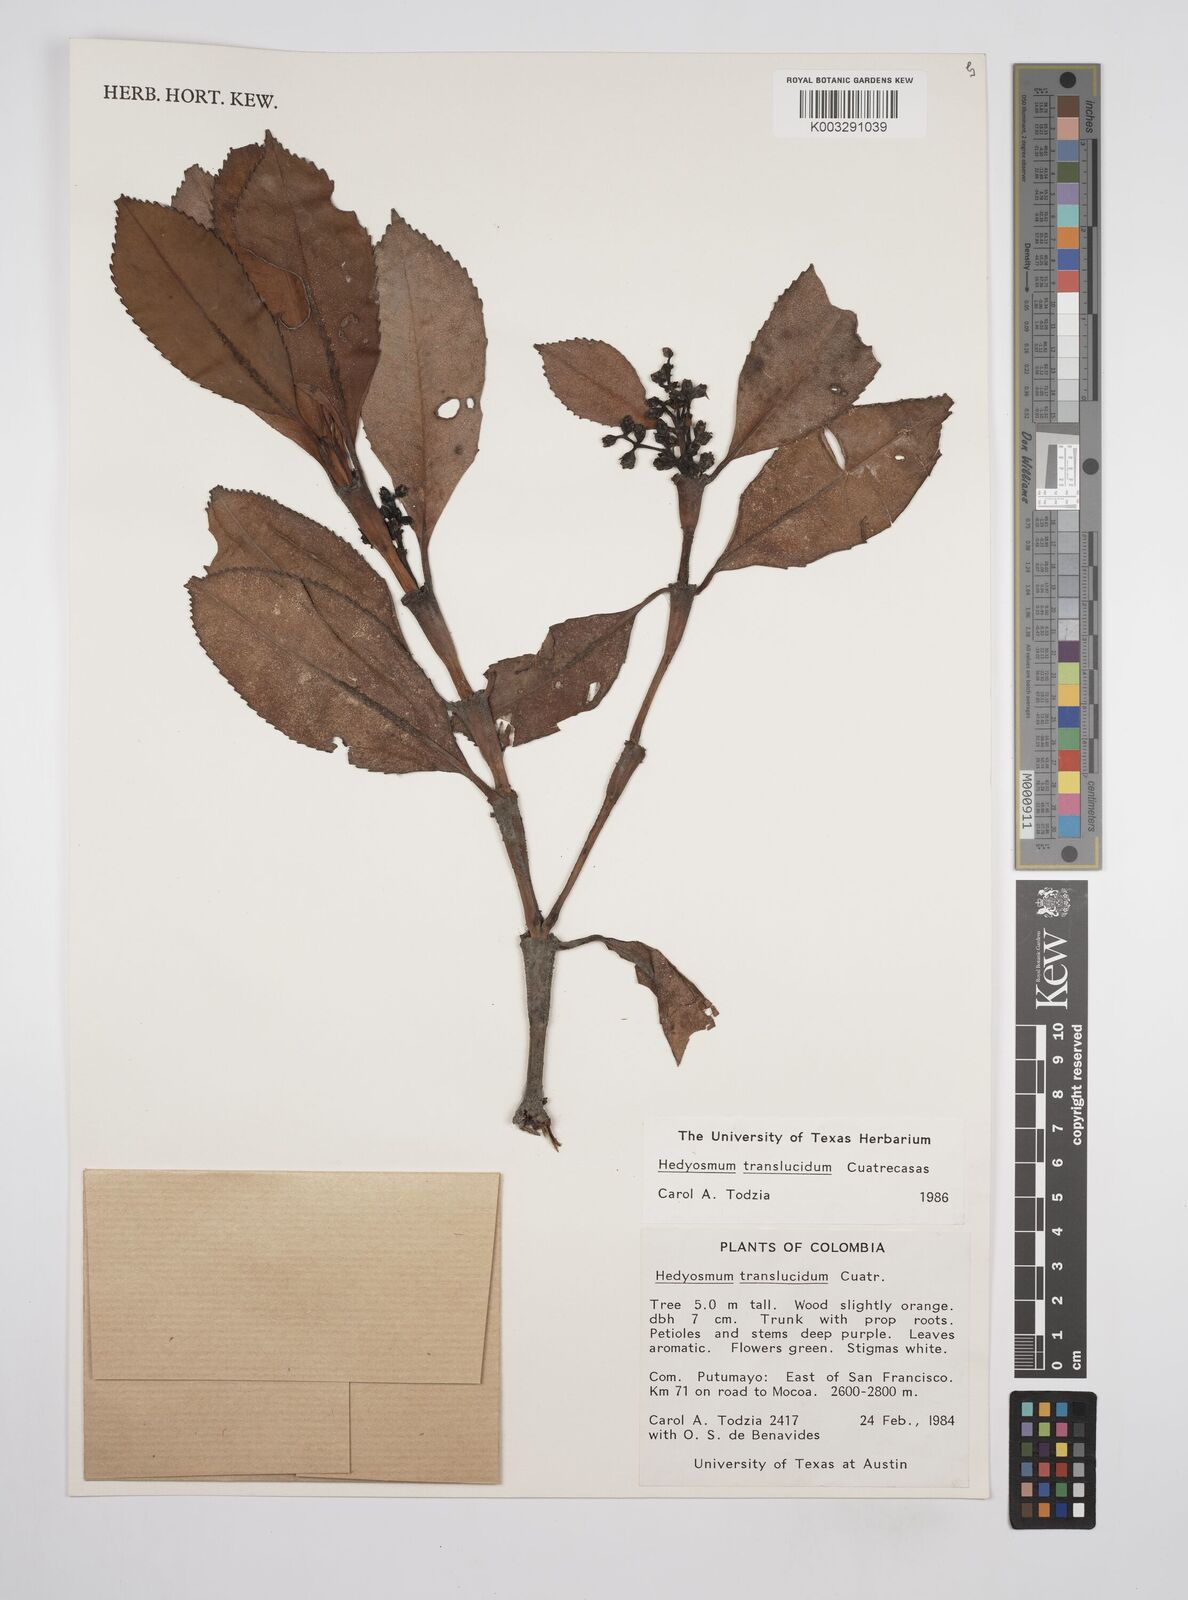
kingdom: Plantae
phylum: Tracheophyta
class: Magnoliopsida
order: Chloranthales
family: Chloranthaceae
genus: Hedyosmum
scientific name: Hedyosmum translucidum
